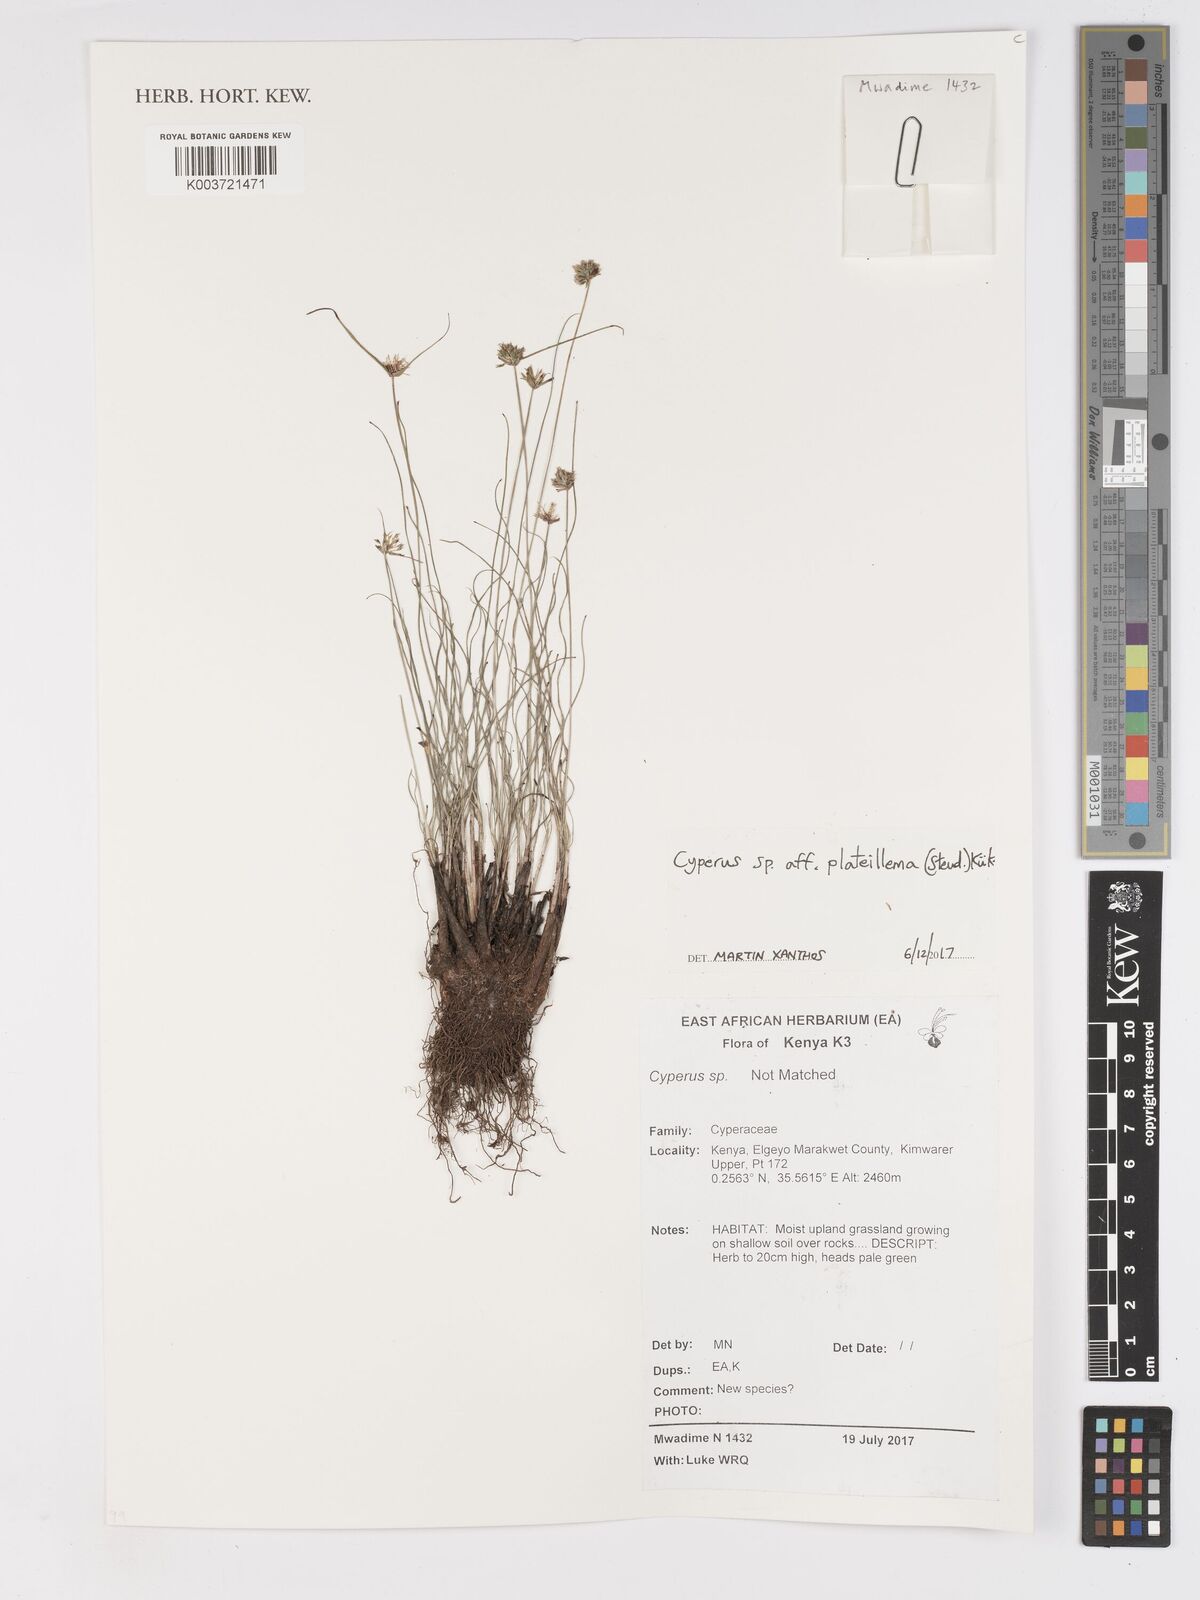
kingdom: Plantae
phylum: Tracheophyta
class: Liliopsida
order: Poales
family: Cyperaceae
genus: Cyperus
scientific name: Cyperus plateilema
